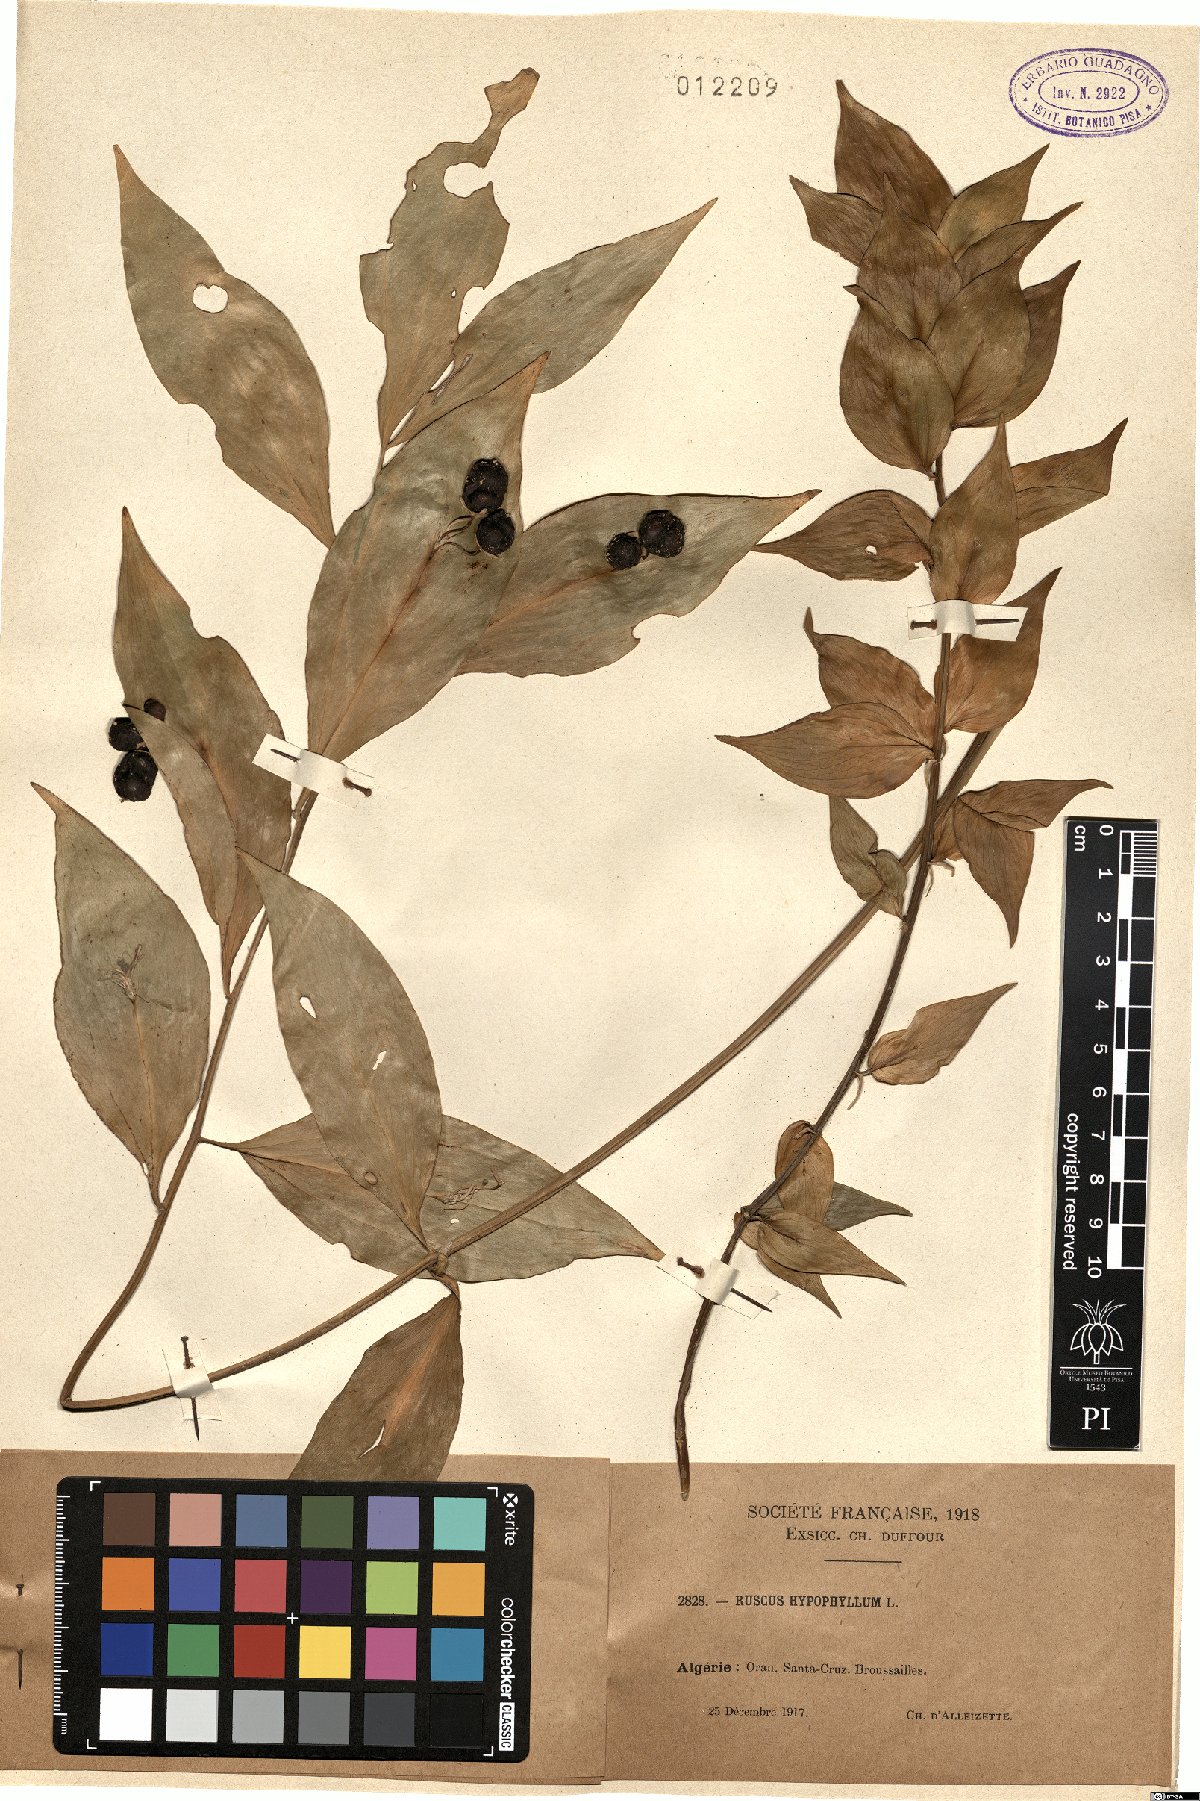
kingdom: Plantae
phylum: Tracheophyta
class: Liliopsida
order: Asparagales
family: Asparagaceae
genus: Ruscus
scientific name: Ruscus hypophyllum
